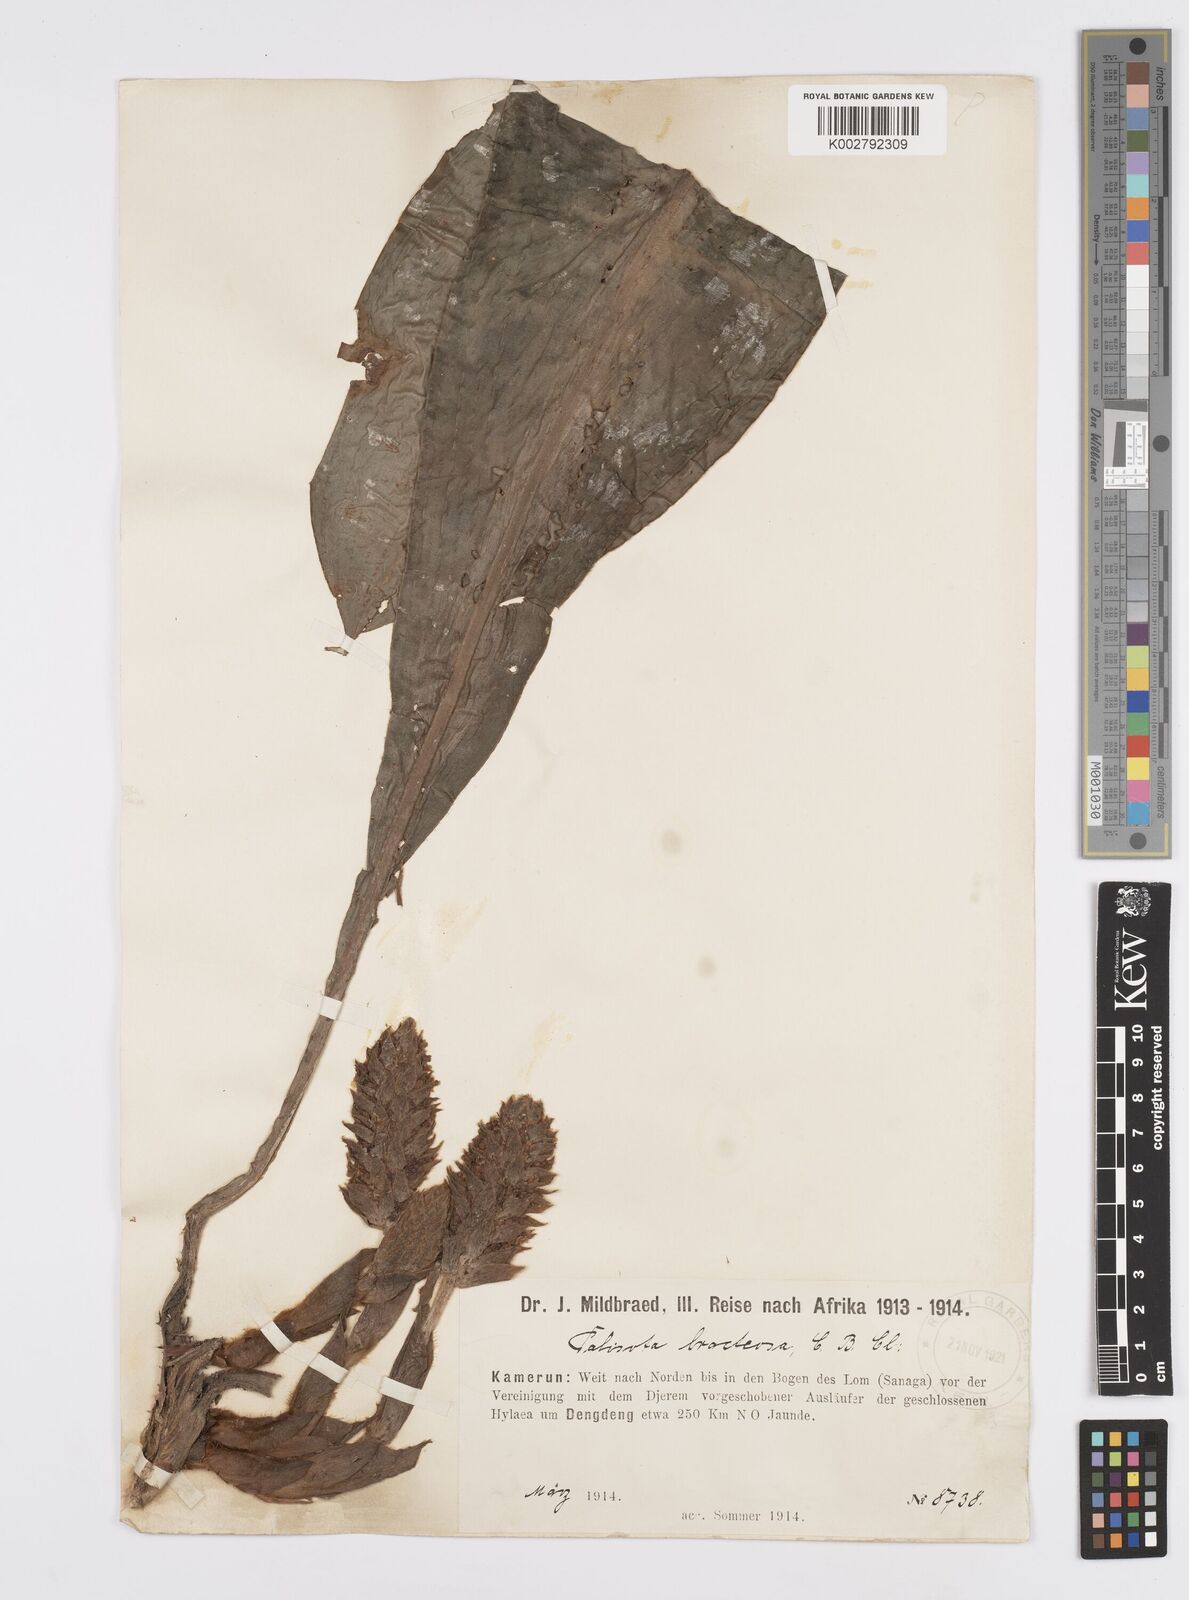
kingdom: Plantae
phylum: Tracheophyta
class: Liliopsida
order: Commelinales
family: Commelinaceae
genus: Palisota
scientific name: Palisota bracteosa
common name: Palisota
